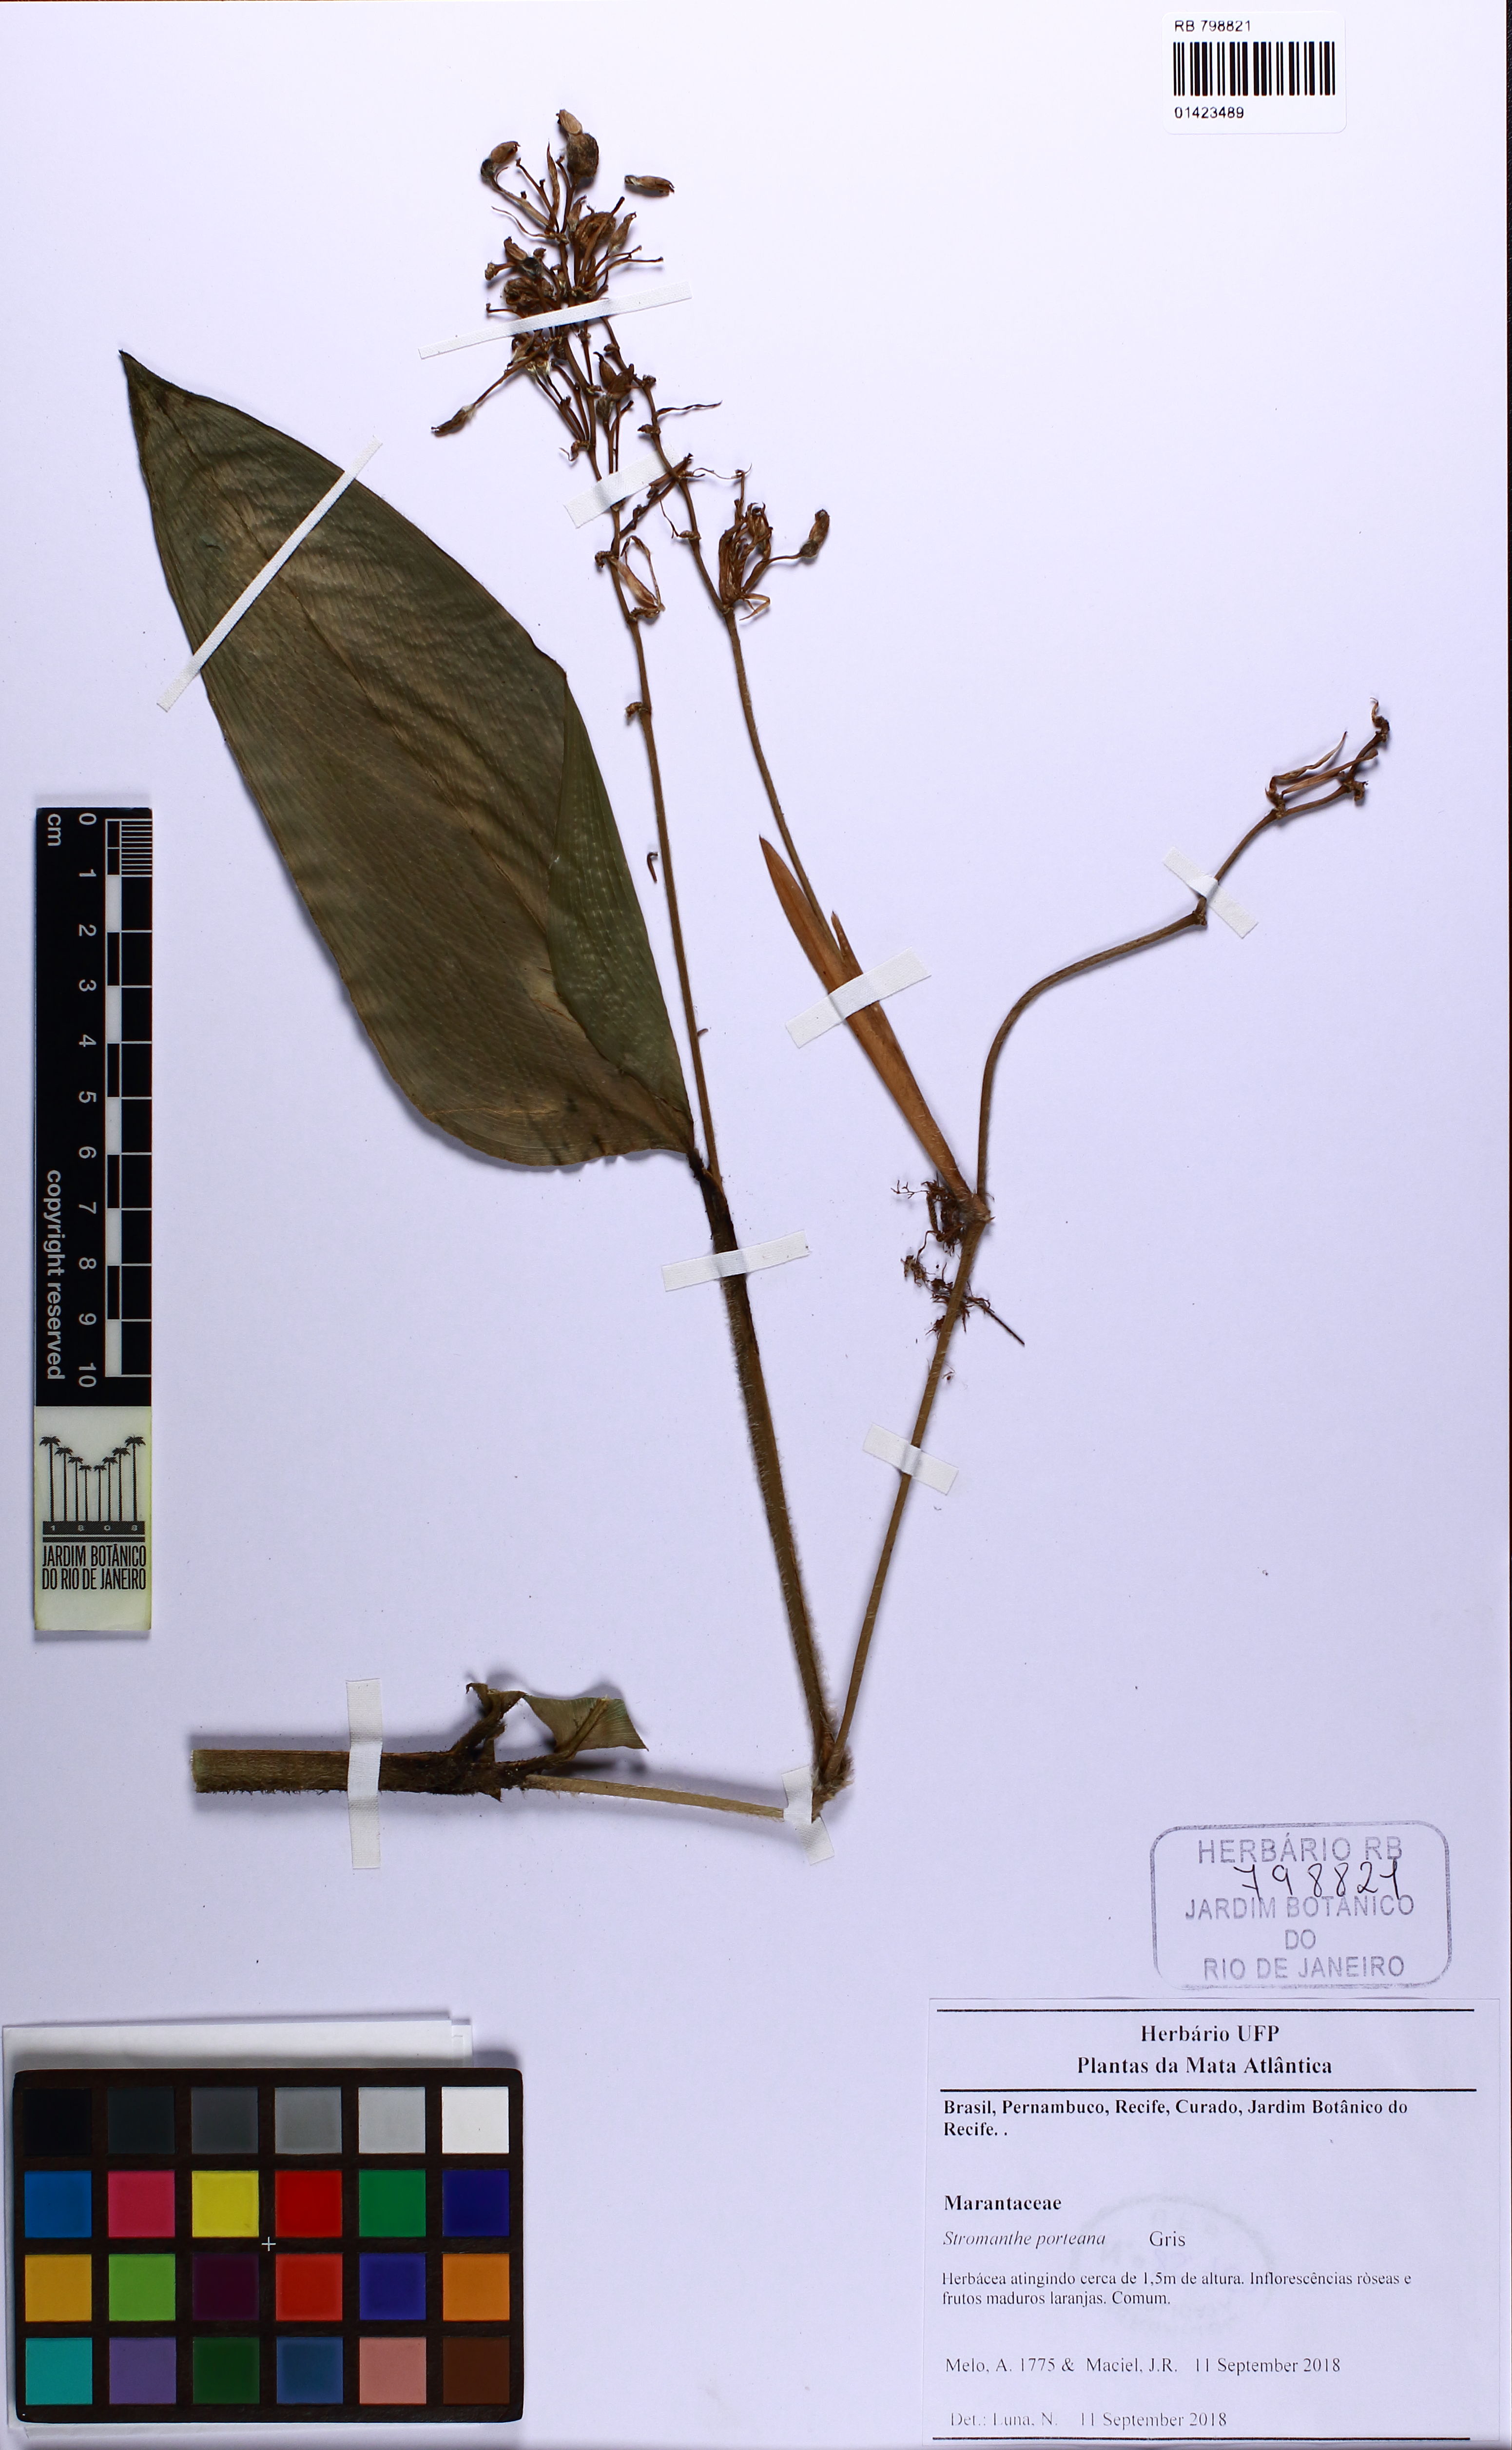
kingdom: Plantae
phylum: Tracheophyta
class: Liliopsida
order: Zingiberales
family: Marantaceae
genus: Stromanthe
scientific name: Stromanthe porteana
